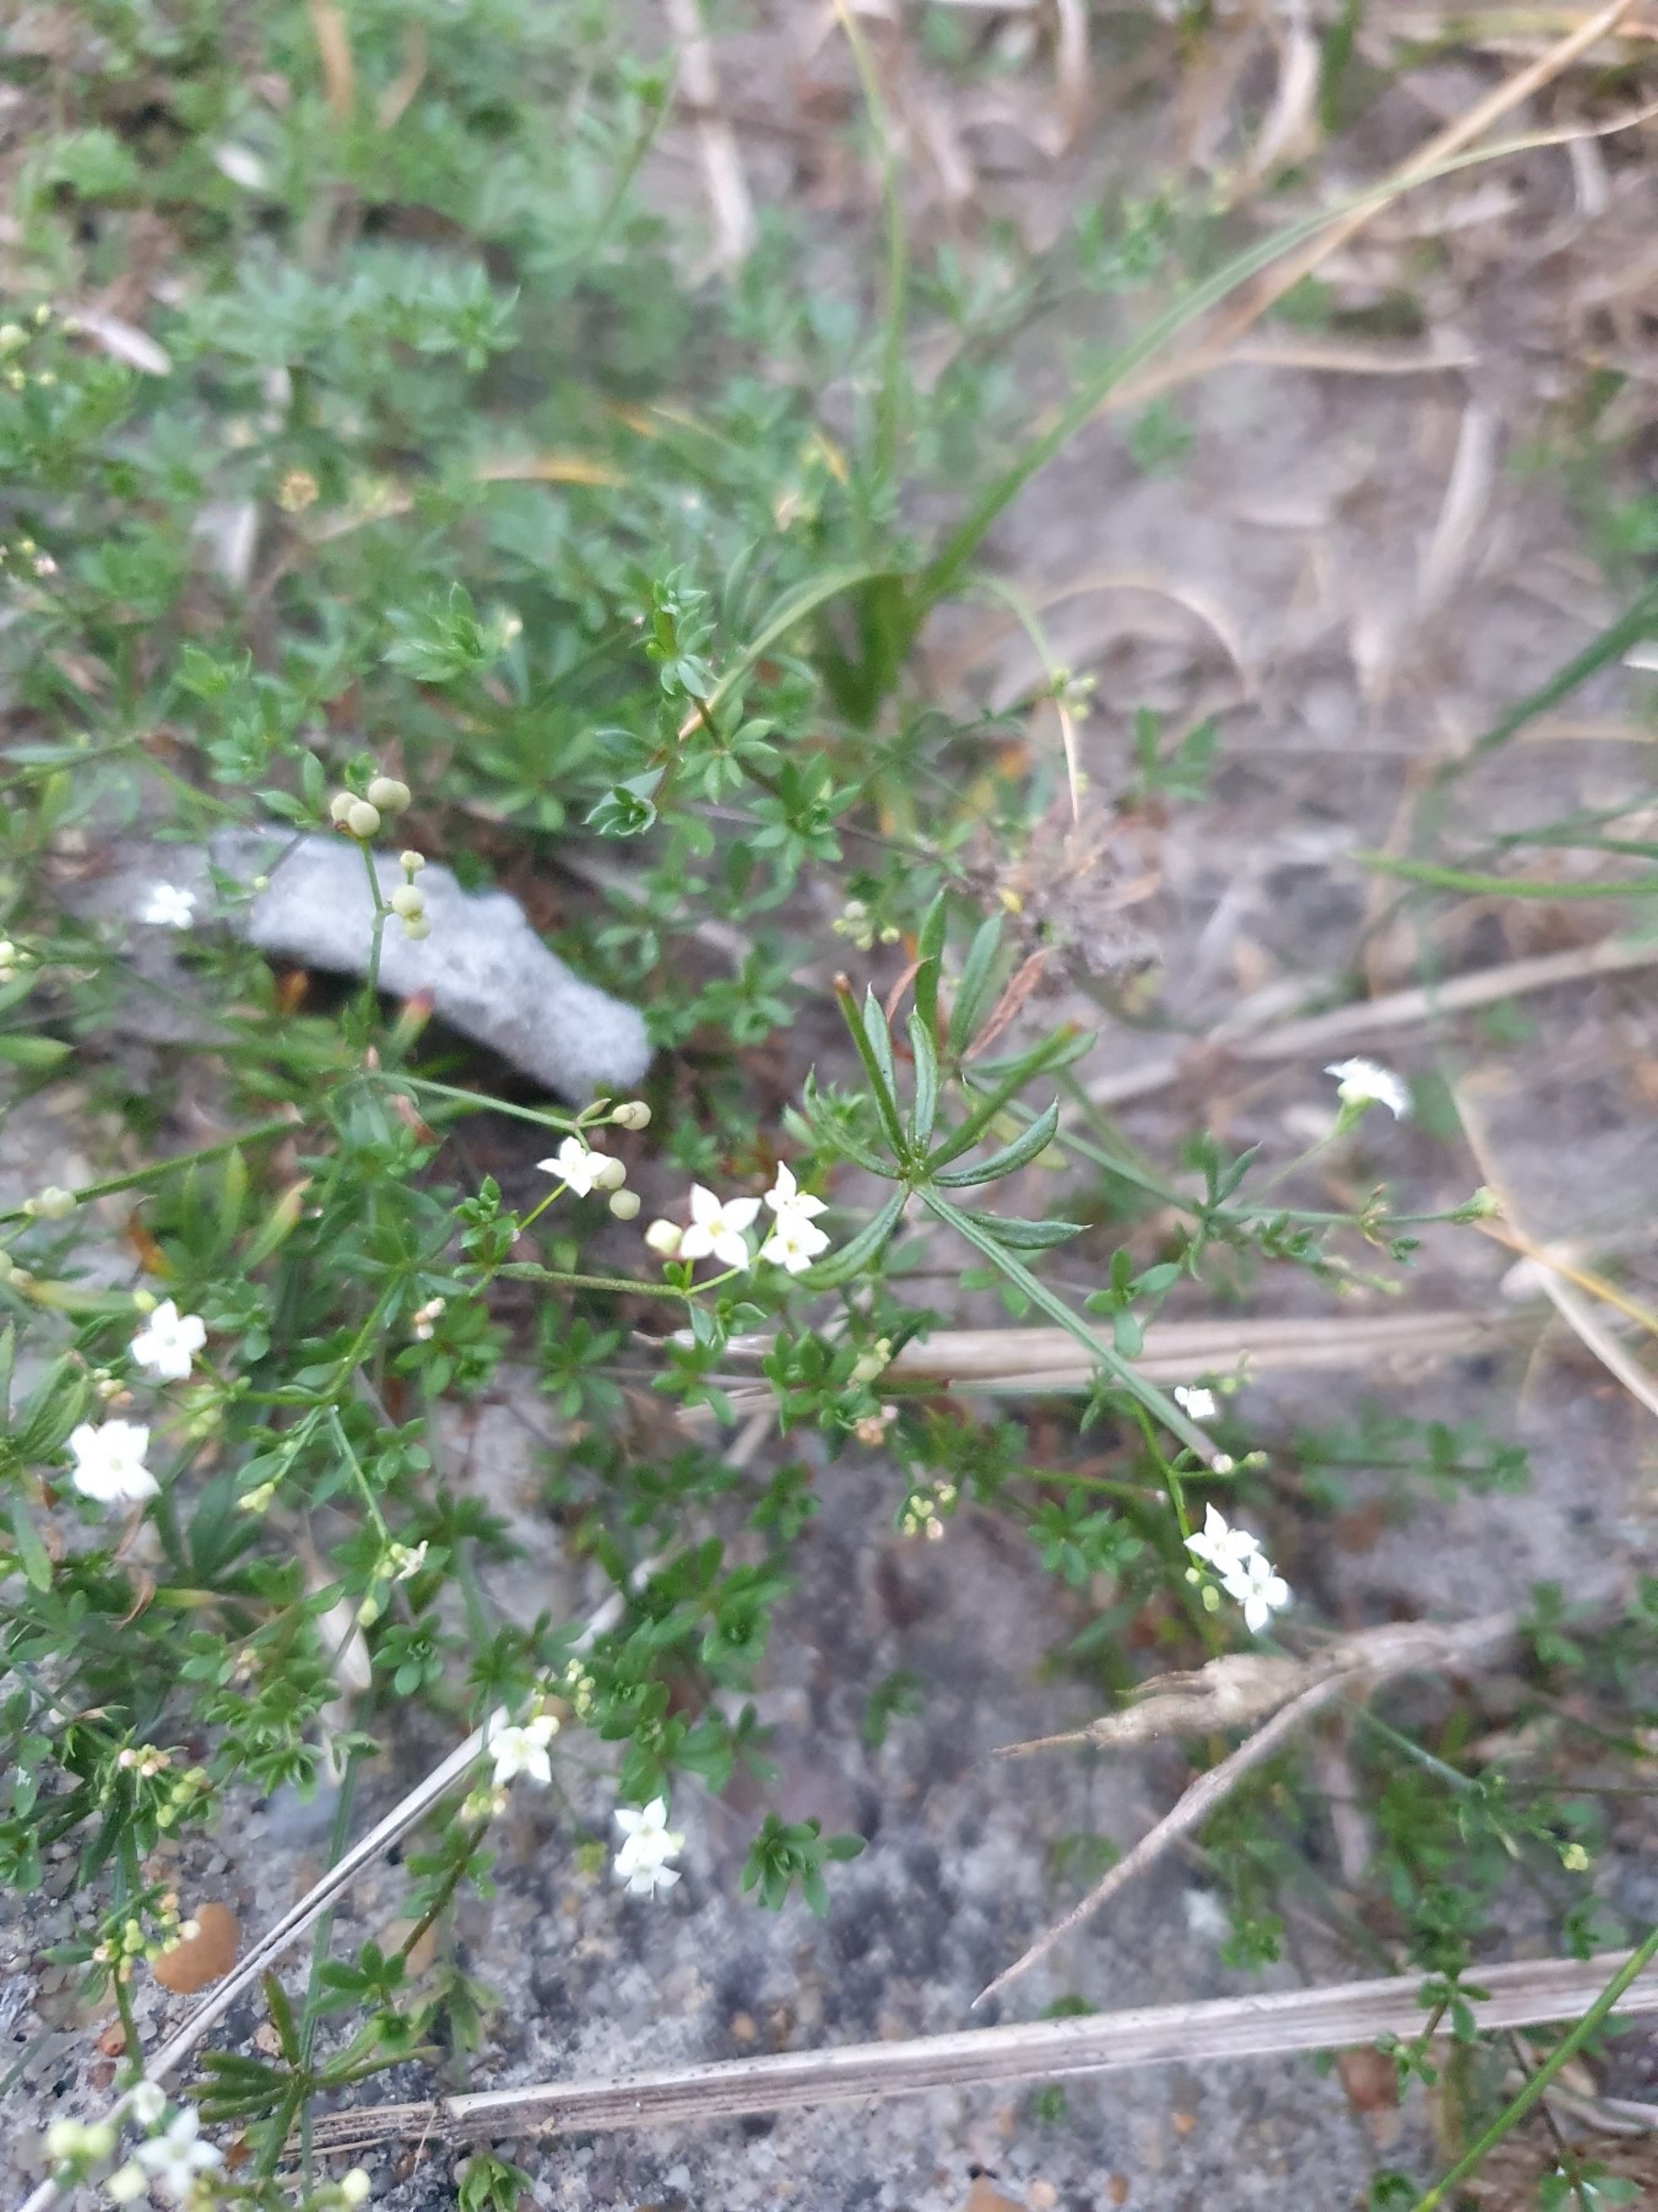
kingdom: Plantae
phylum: Tracheophyta
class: Magnoliopsida
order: Gentianales
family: Rubiaceae
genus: Galium
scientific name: Galium sterneri
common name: Liden snerre
